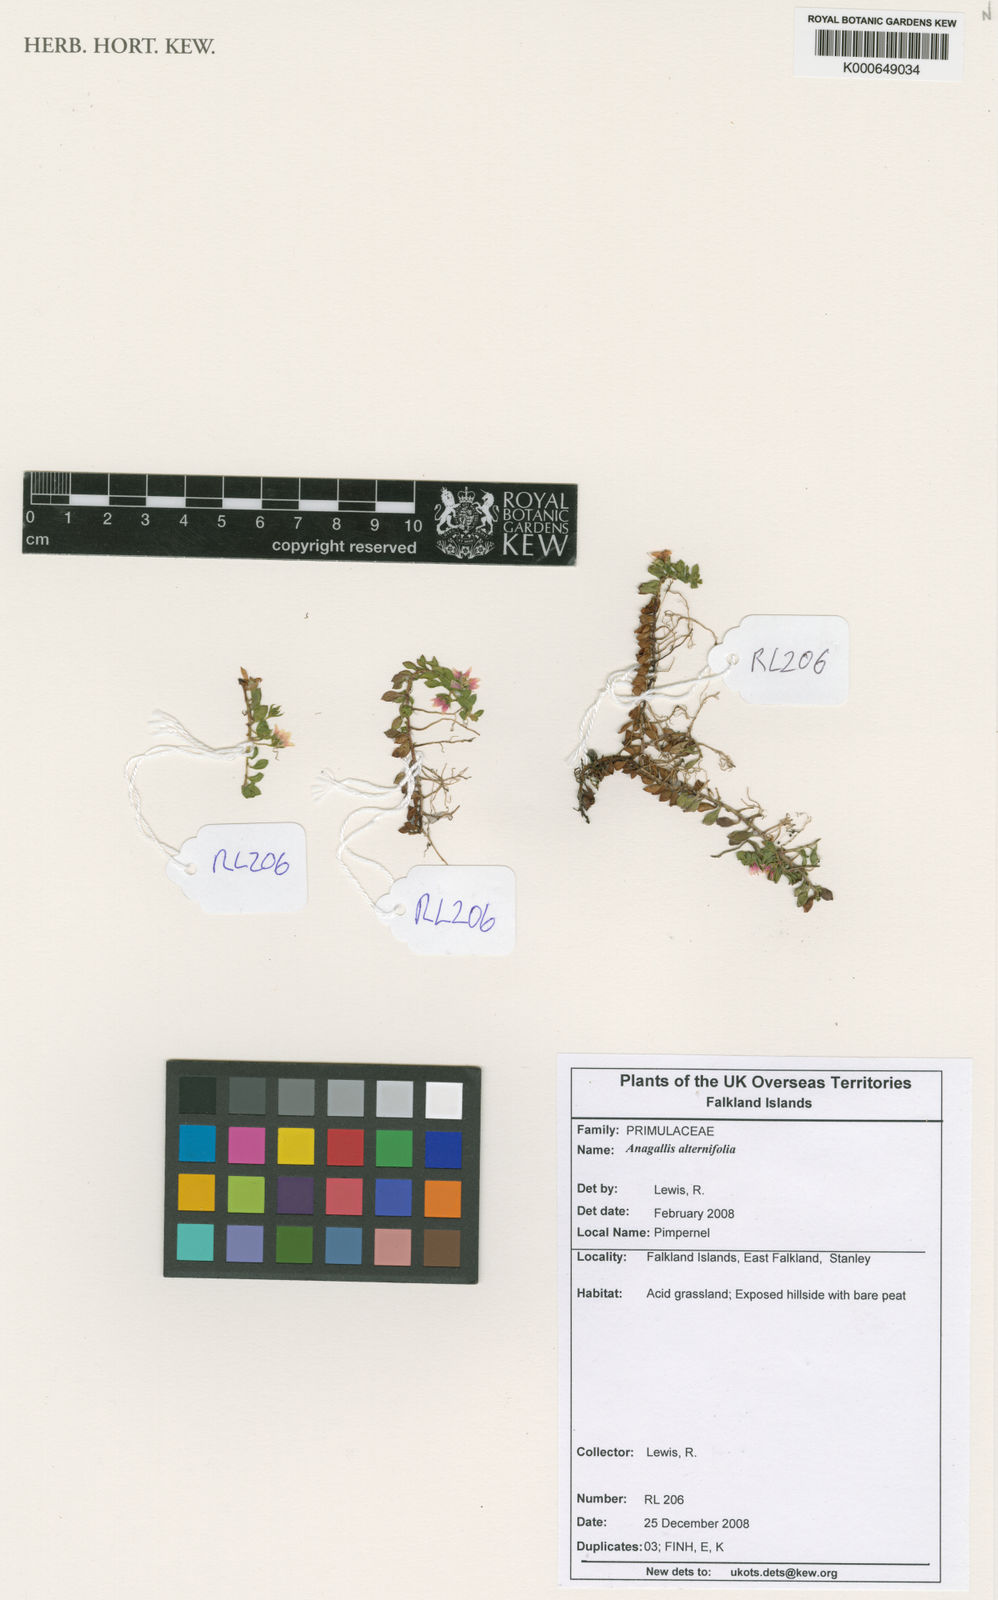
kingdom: Plantae
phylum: Tracheophyta
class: Magnoliopsida
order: Ericales
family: Primulaceae
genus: Lysimachia
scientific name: Lysimachia lanceola
